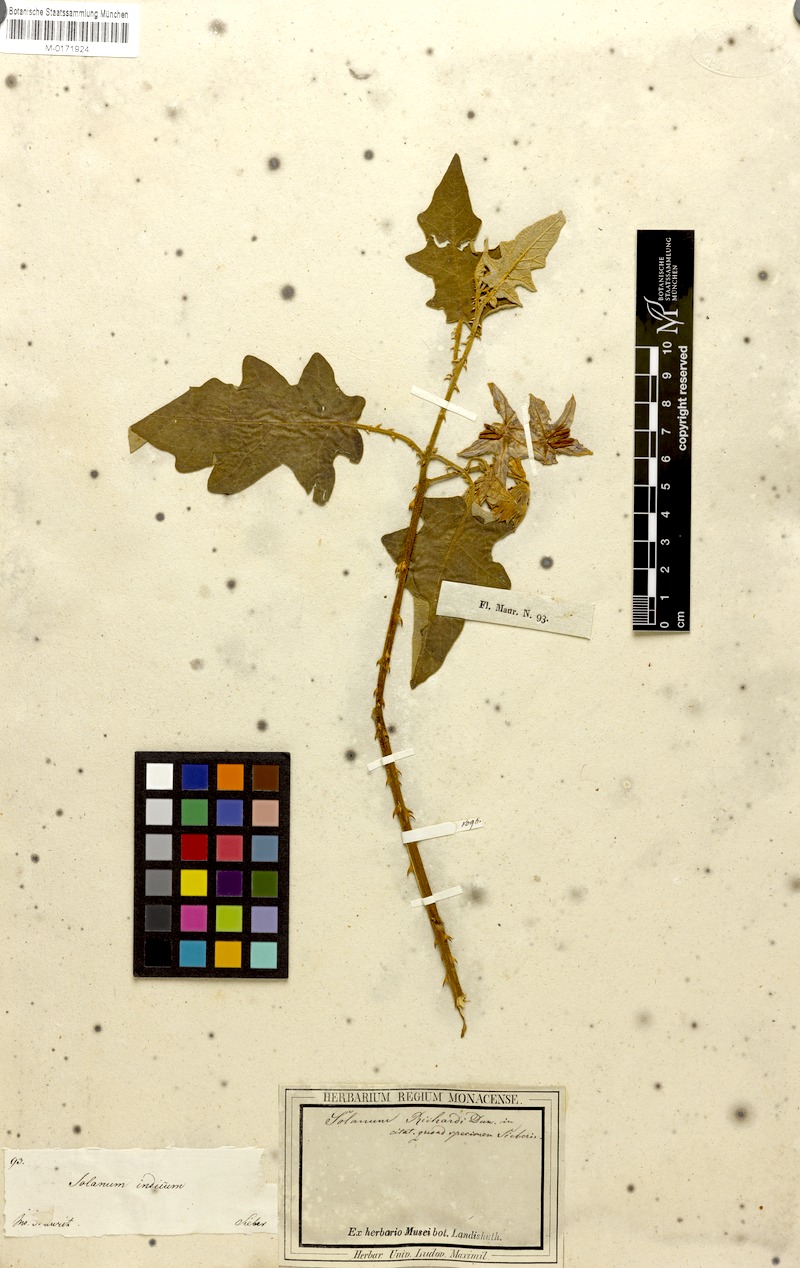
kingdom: Plantae
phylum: Tracheophyta
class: Magnoliopsida
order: Solanales
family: Solanaceae
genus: Solanum
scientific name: Solanum anguivi
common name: Forest bitterberry
